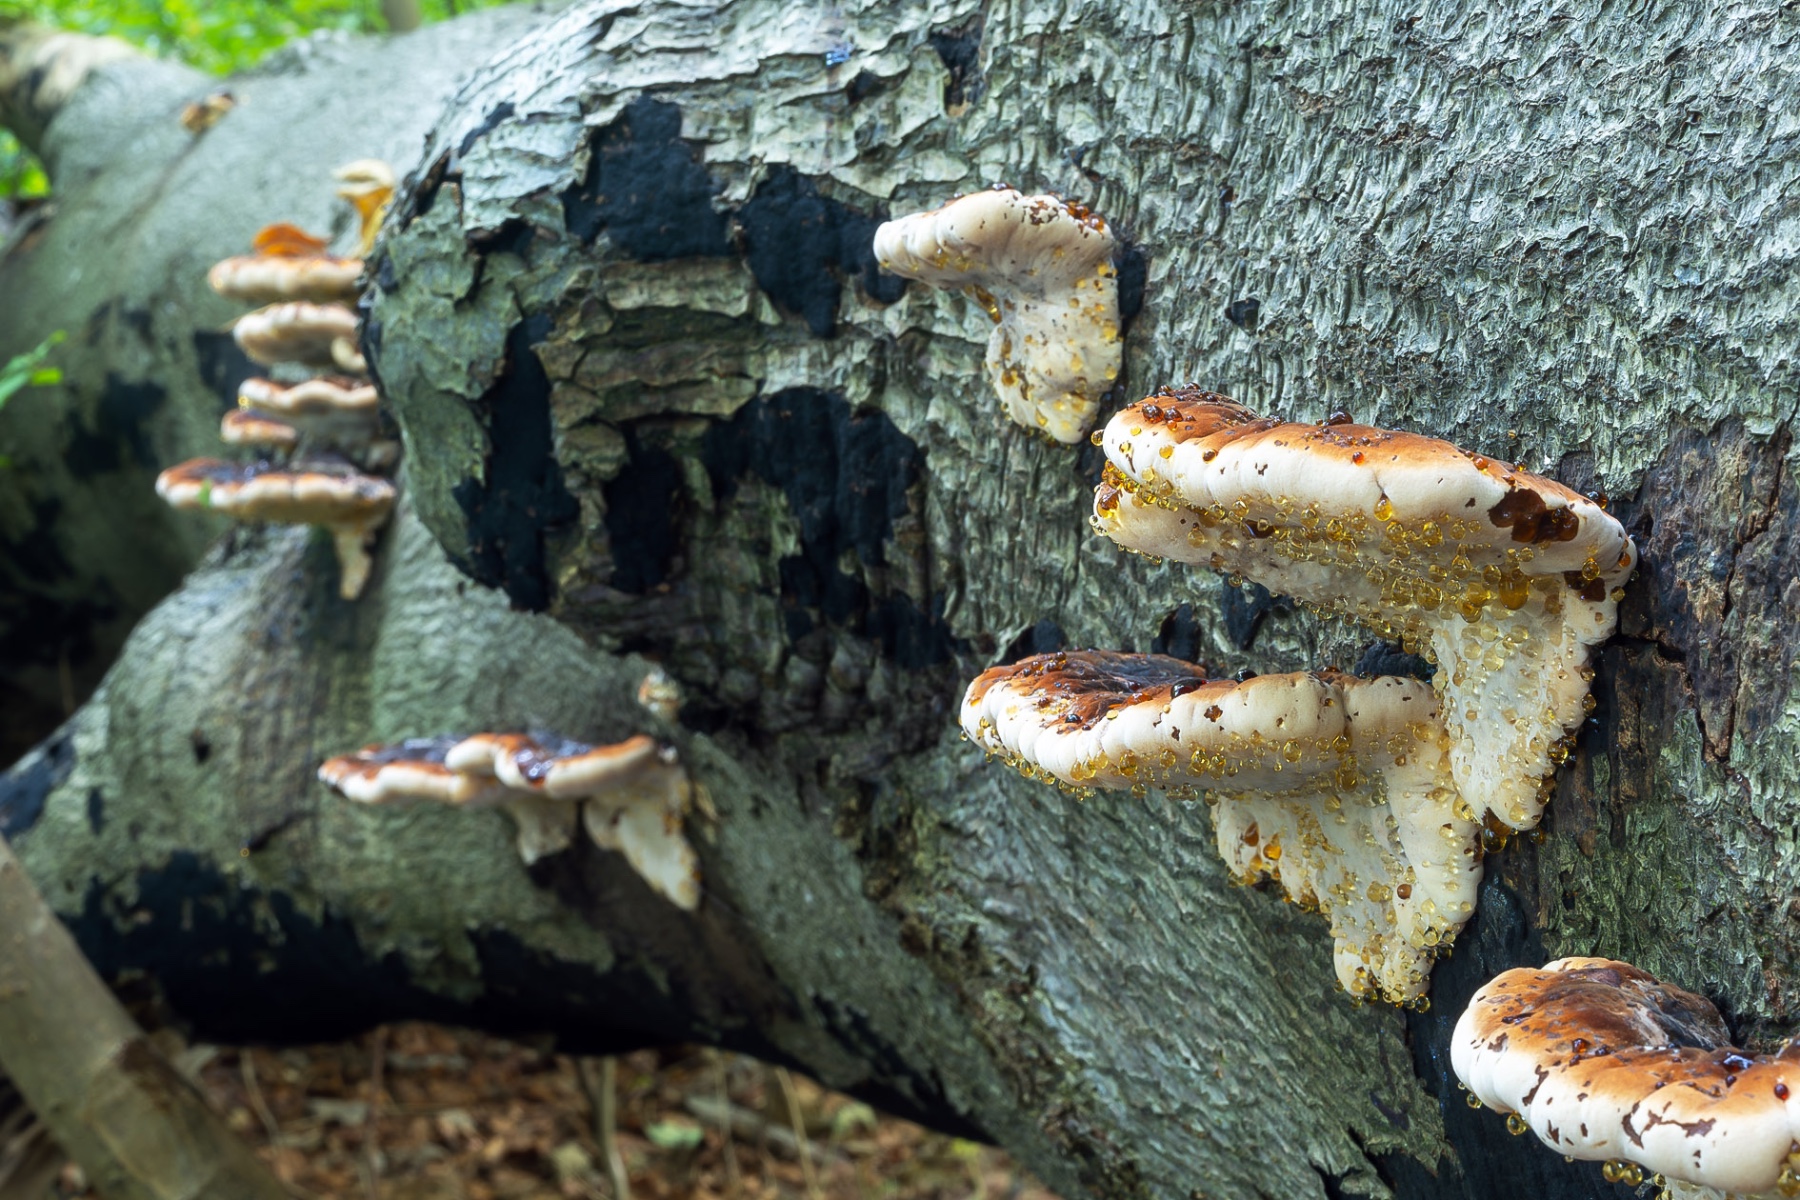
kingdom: Fungi
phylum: Basidiomycota
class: Agaricomycetes
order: Polyporales
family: Ischnodermataceae
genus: Ischnoderma
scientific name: Ischnoderma resinosum
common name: løv-tjæreporesvamp
